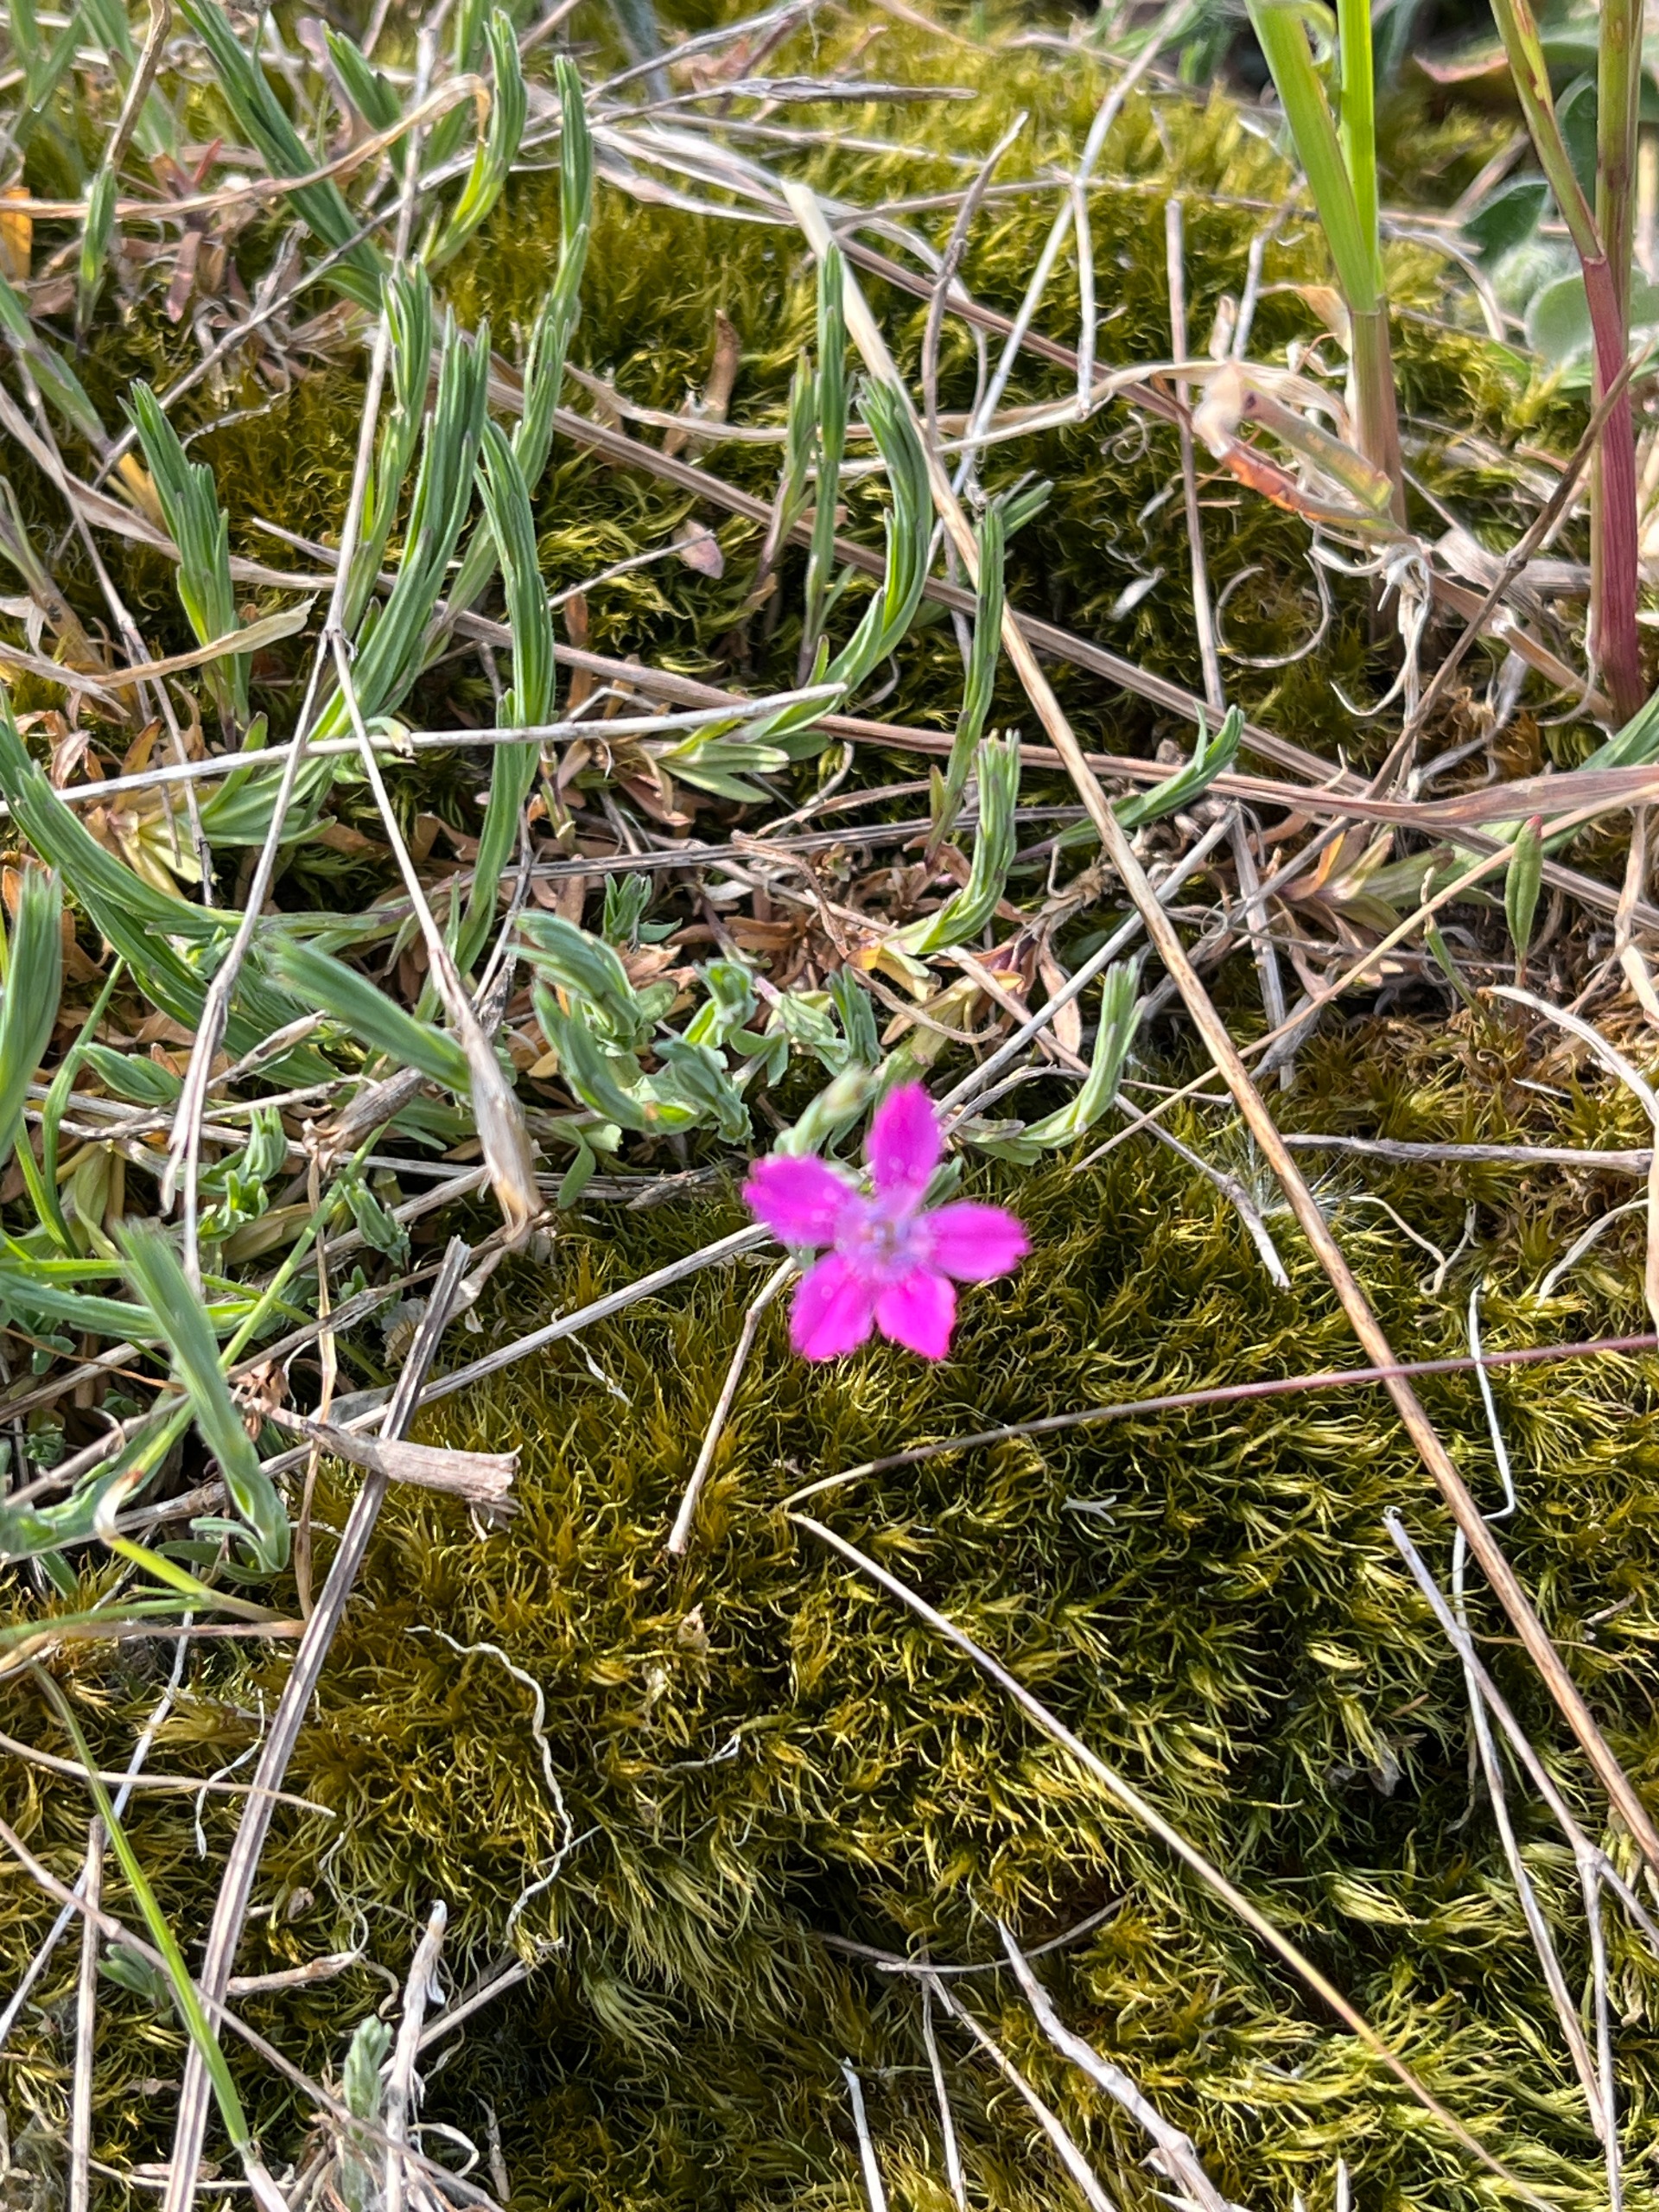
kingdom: Plantae
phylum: Tracheophyta
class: Magnoliopsida
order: Caryophyllales
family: Caryophyllaceae
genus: Dianthus
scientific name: Dianthus deltoides
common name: Bakke-nellike
